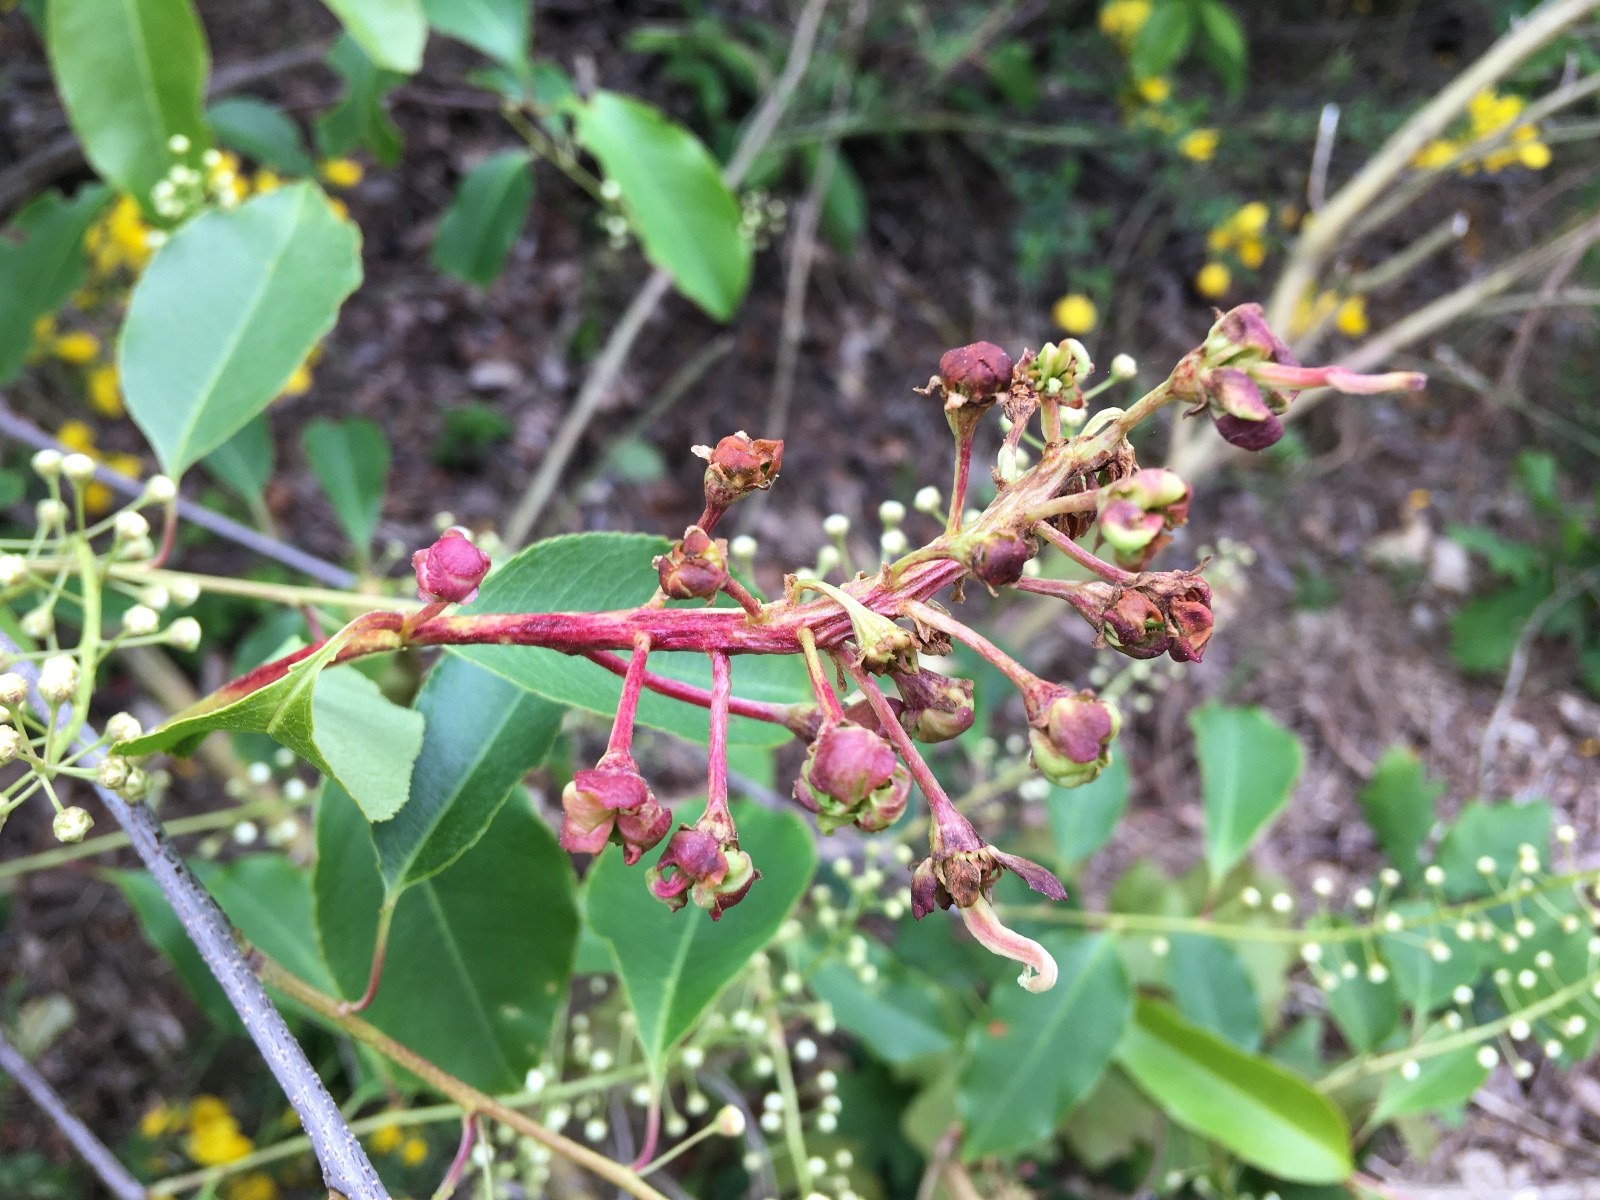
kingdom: Fungi
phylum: Ascomycota
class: Taphrinomycetes
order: Taphrinales
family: Taphrinaceae
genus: Taphrina
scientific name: Taphrina farlowii
